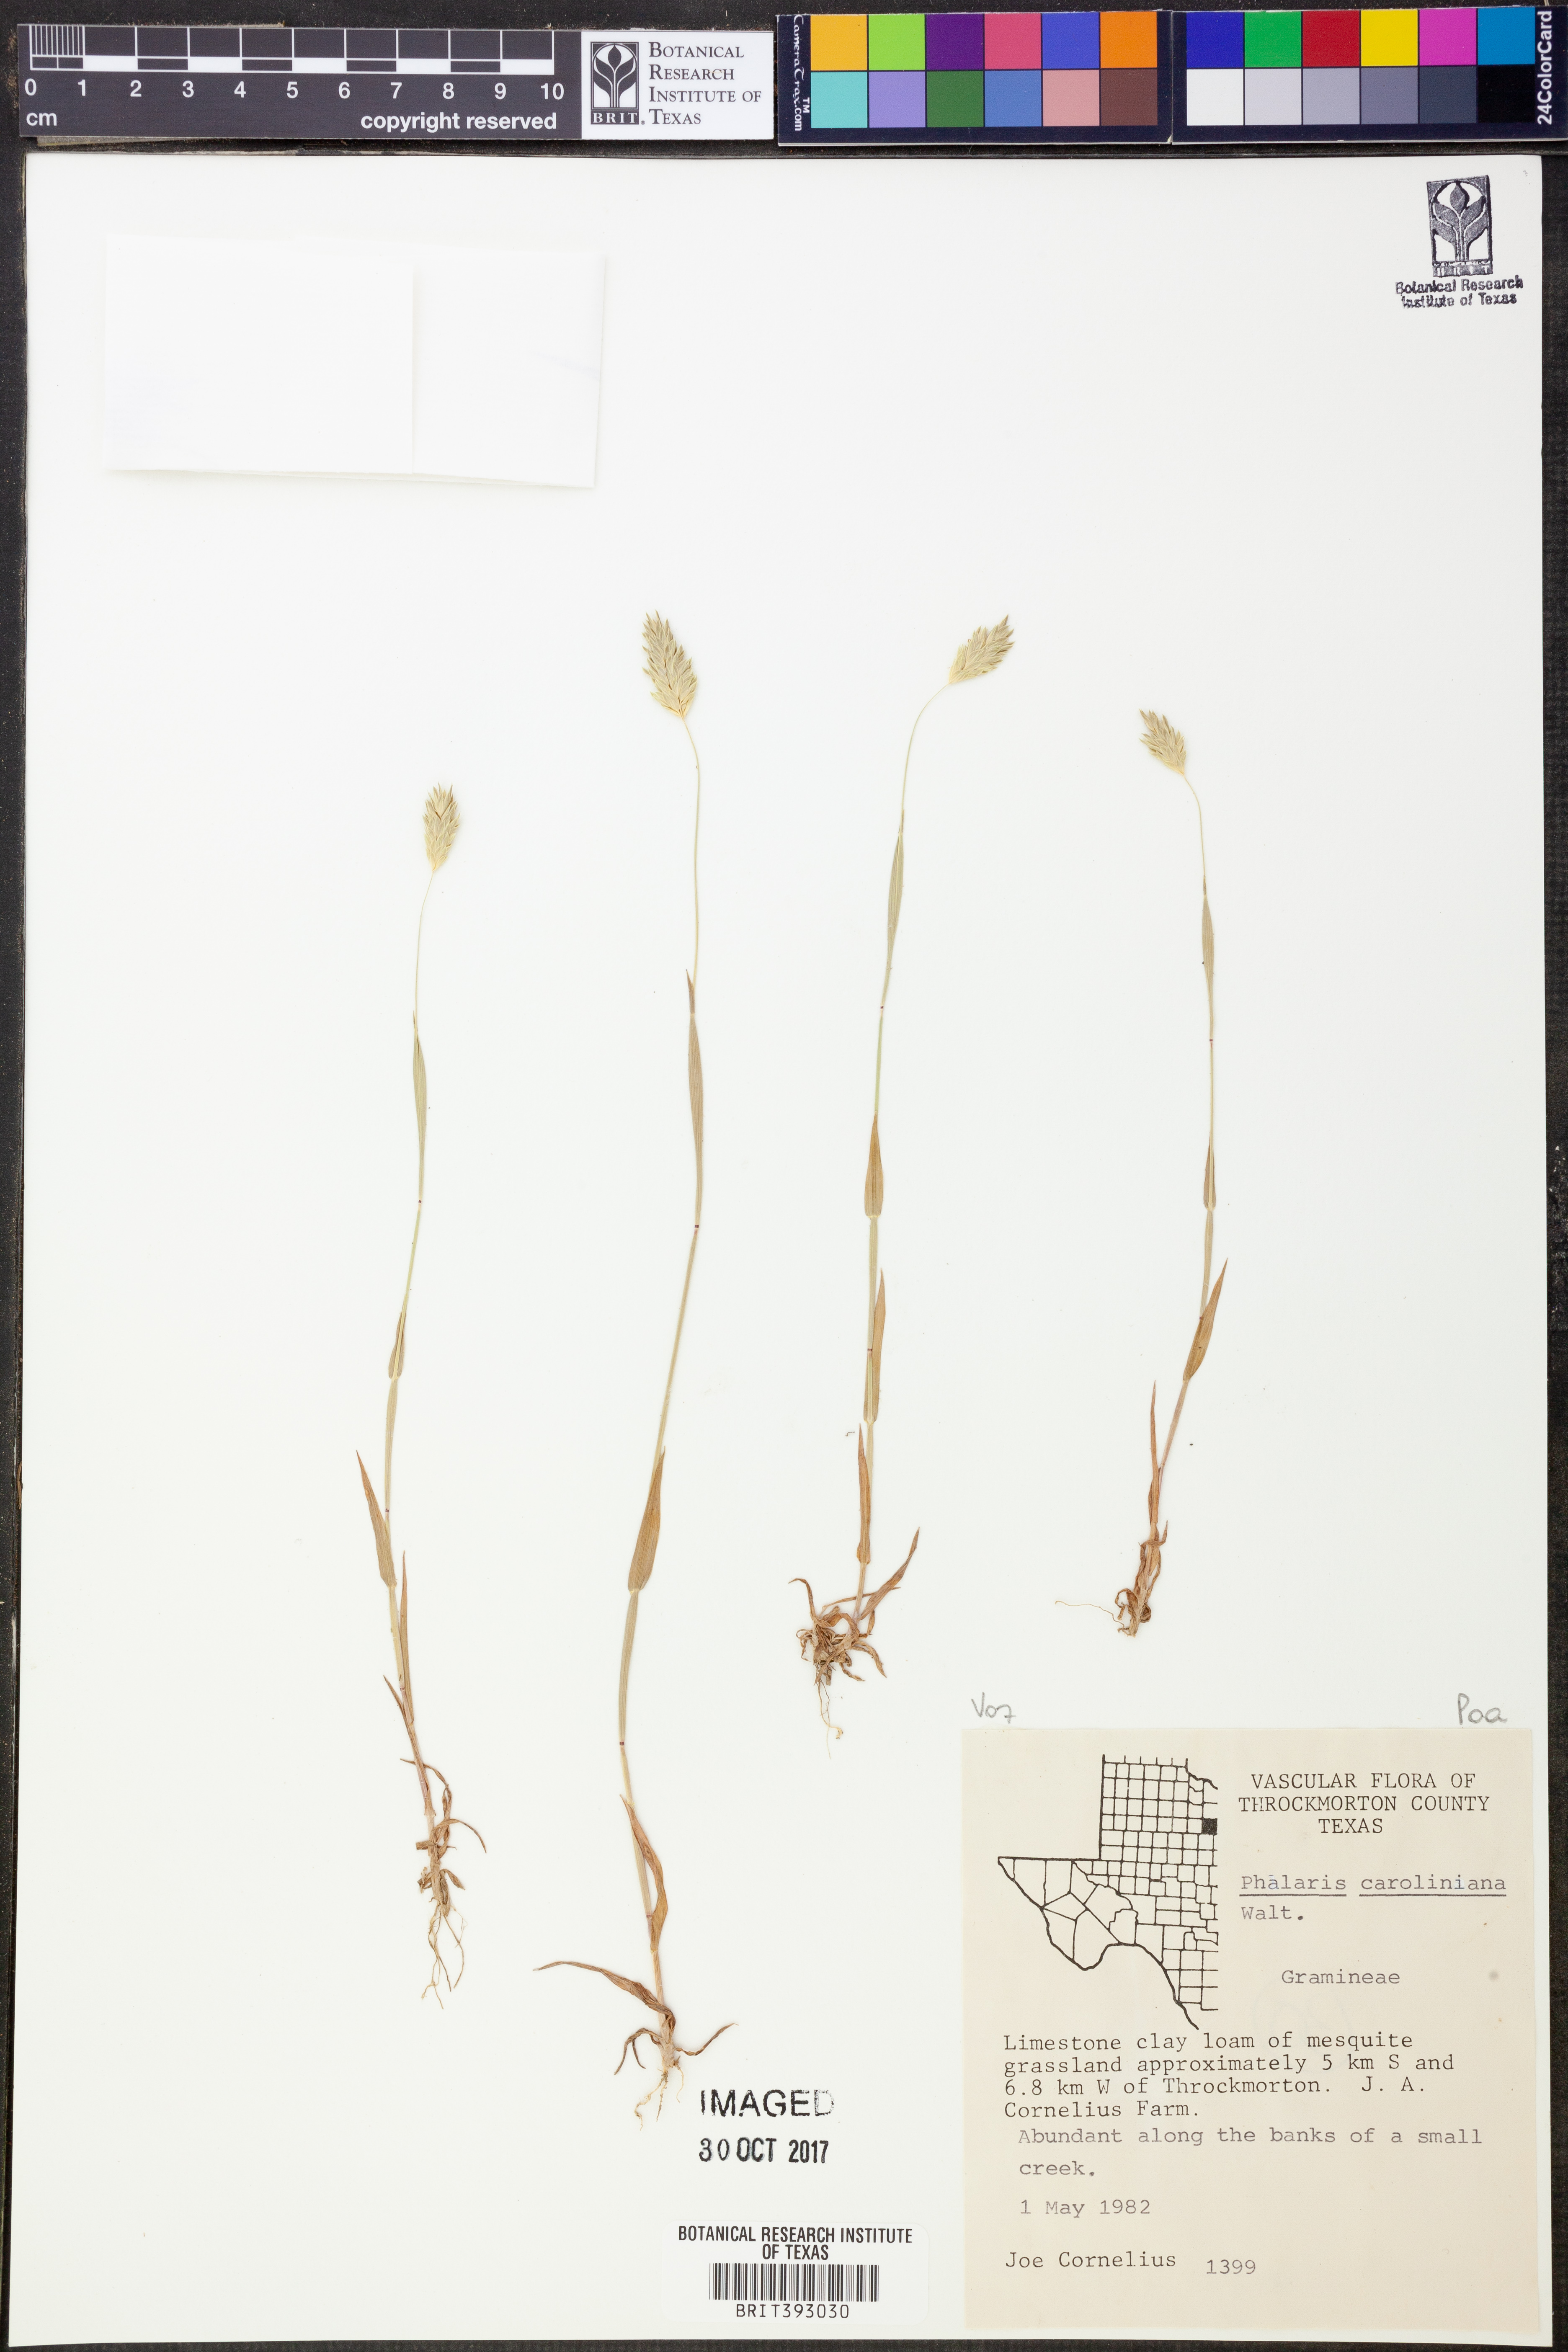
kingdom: Plantae
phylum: Tracheophyta
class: Liliopsida
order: Poales
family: Poaceae
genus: Phalaris
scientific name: Phalaris caroliniana
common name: May grass
